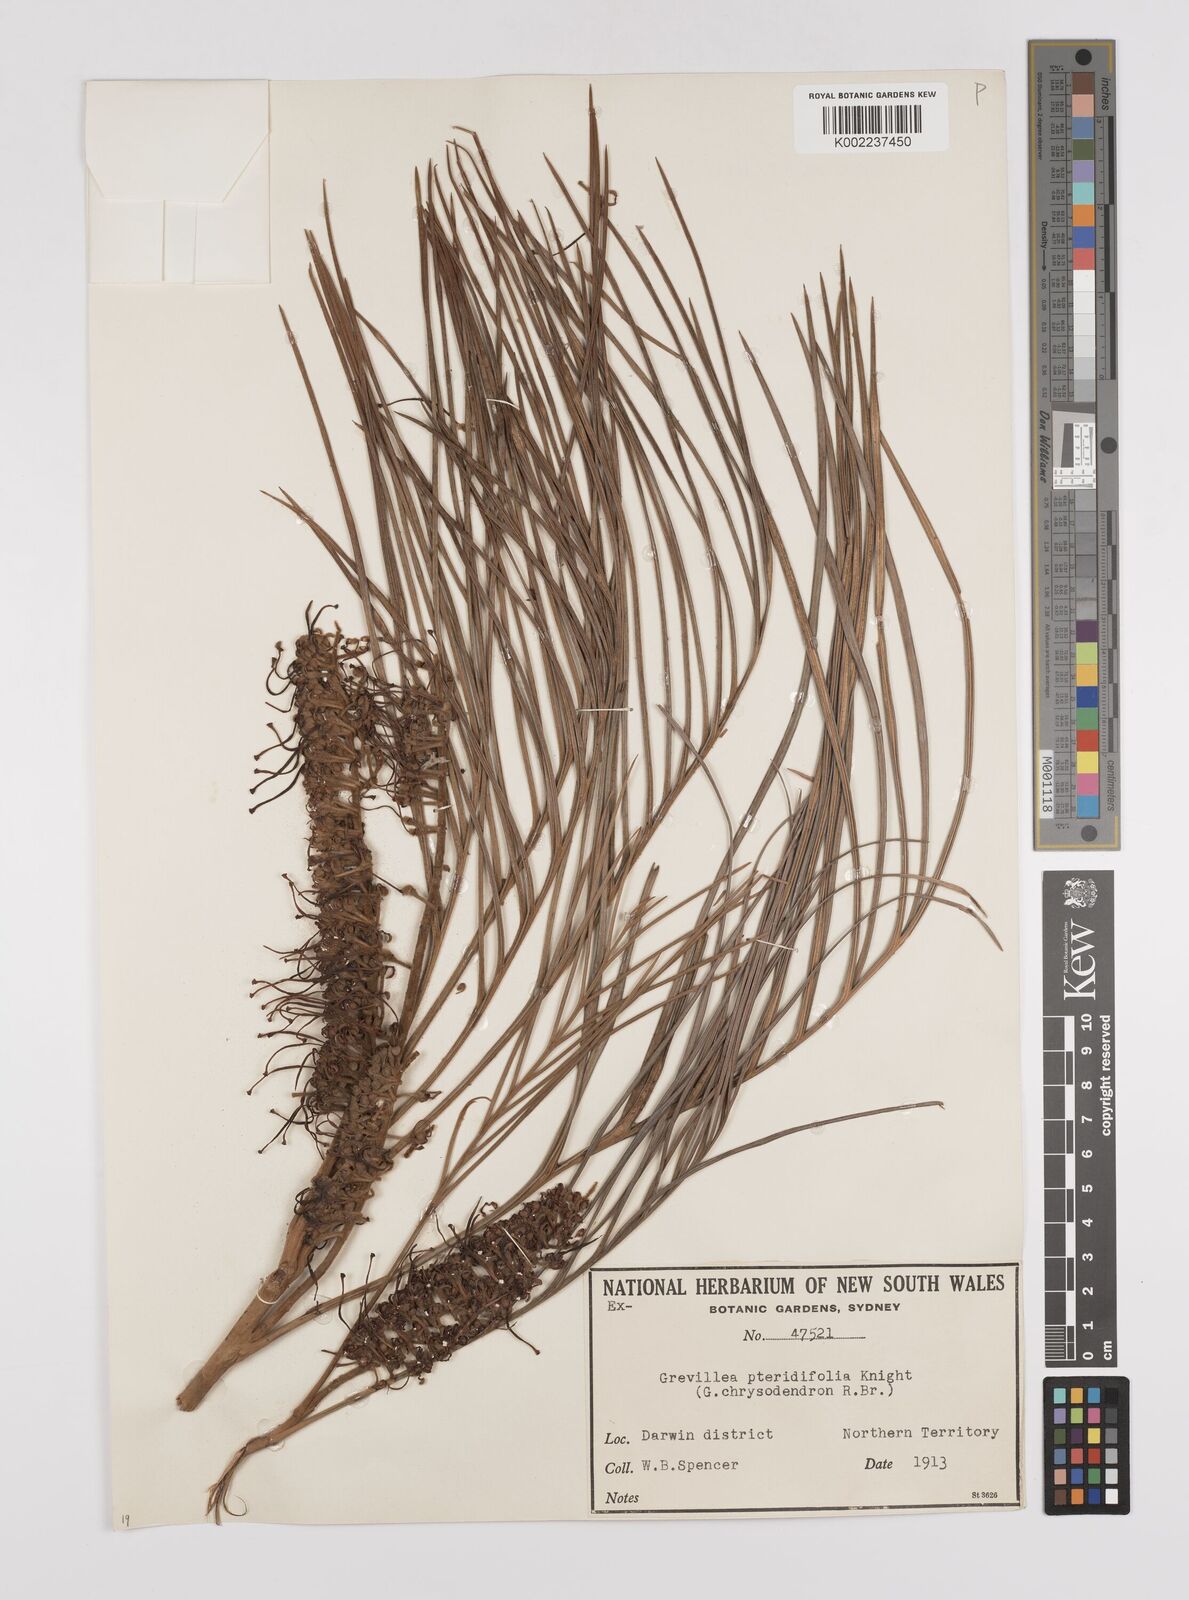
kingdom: Plantae
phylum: Tracheophyta
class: Magnoliopsida
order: Proteales
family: Proteaceae
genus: Grevillea
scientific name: Grevillea pteridifolia
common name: Golden grevillea
